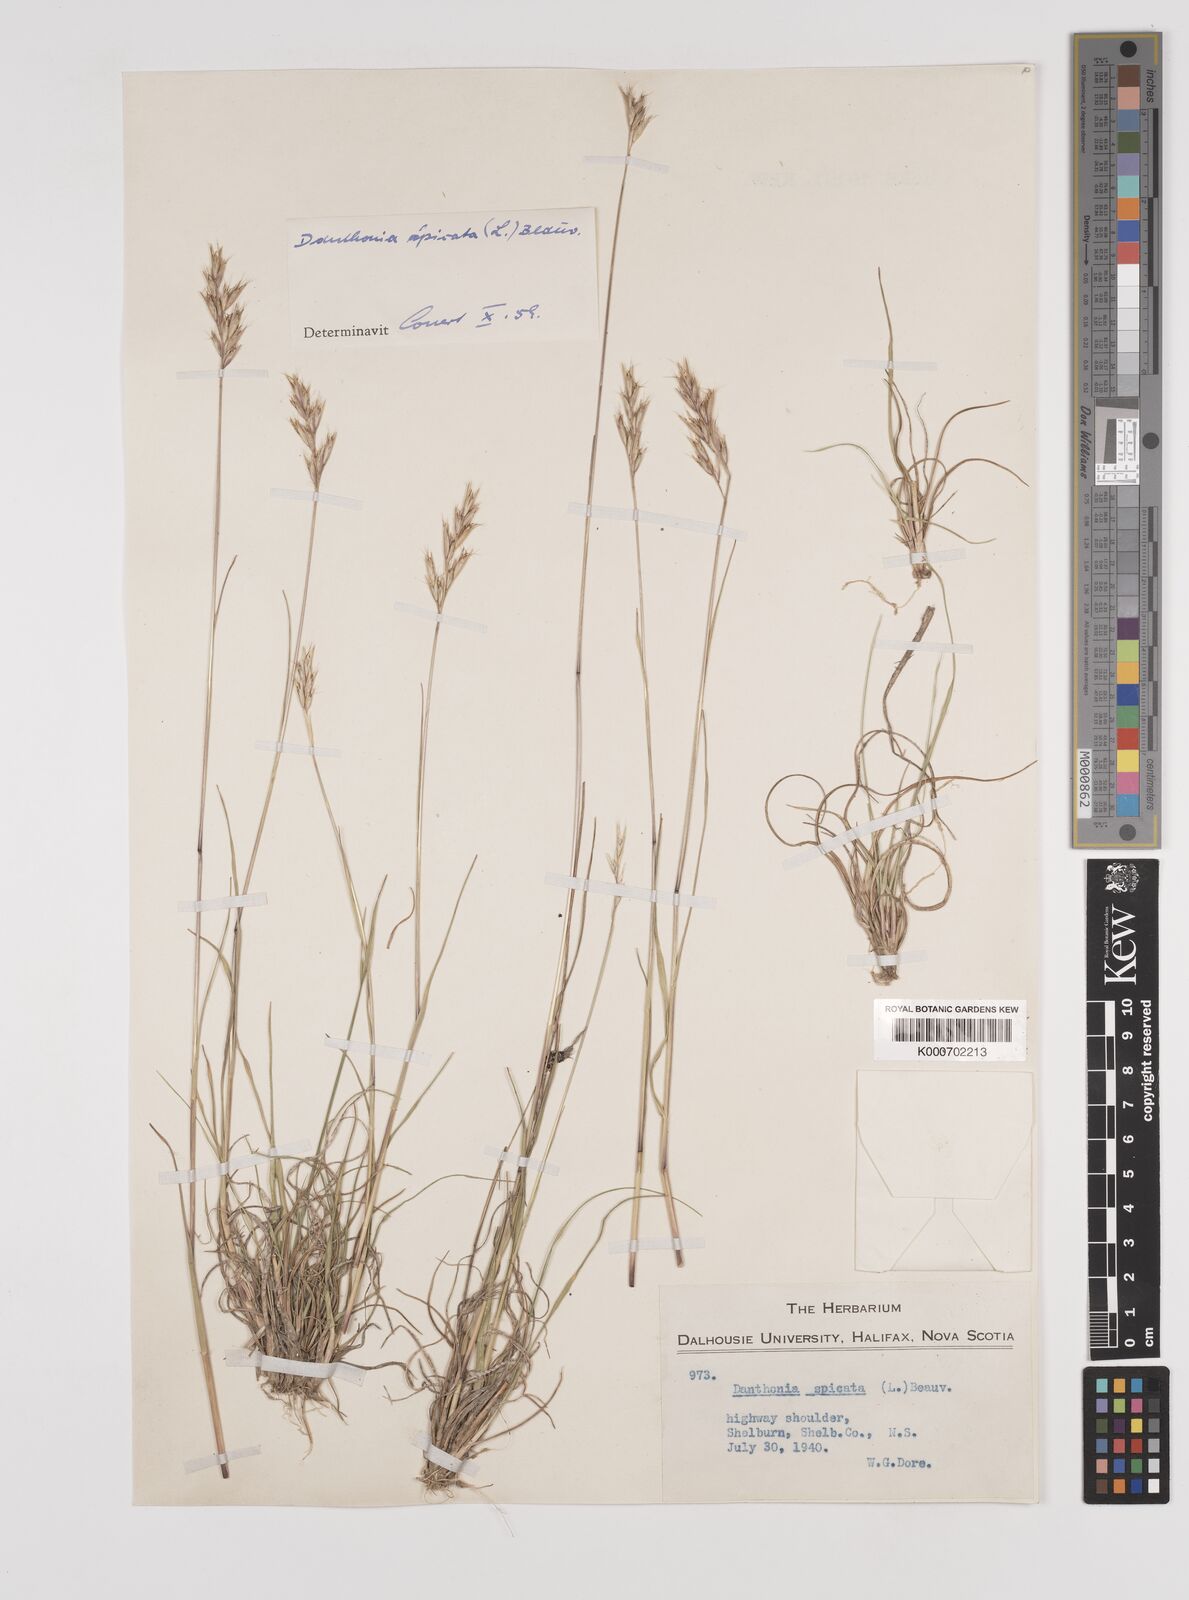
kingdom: Plantae
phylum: Tracheophyta
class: Liliopsida
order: Poales
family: Poaceae
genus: Danthonia
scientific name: Danthonia spicata
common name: Common wild oatgrass
